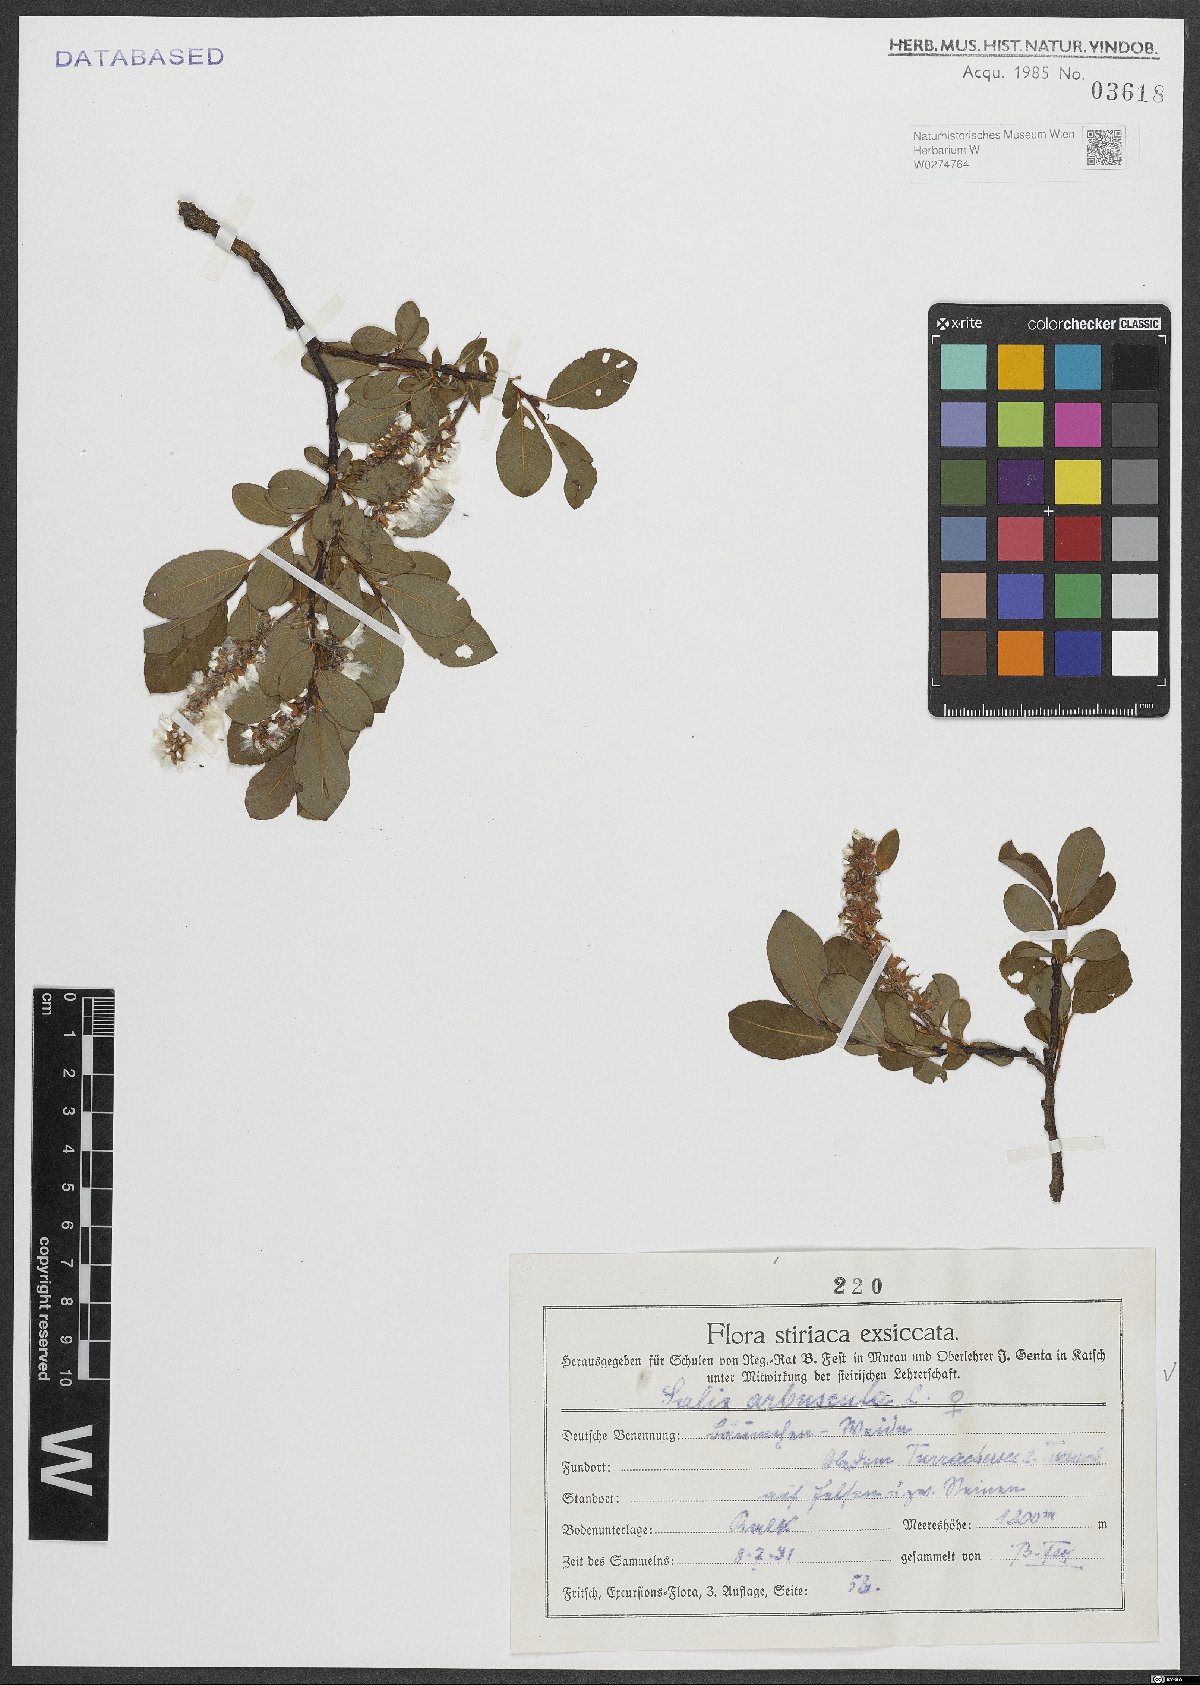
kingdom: Plantae
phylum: Tracheophyta
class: Magnoliopsida
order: Malpighiales
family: Salicaceae
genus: Salix
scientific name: Salix arbuscula
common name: Mountain willow
